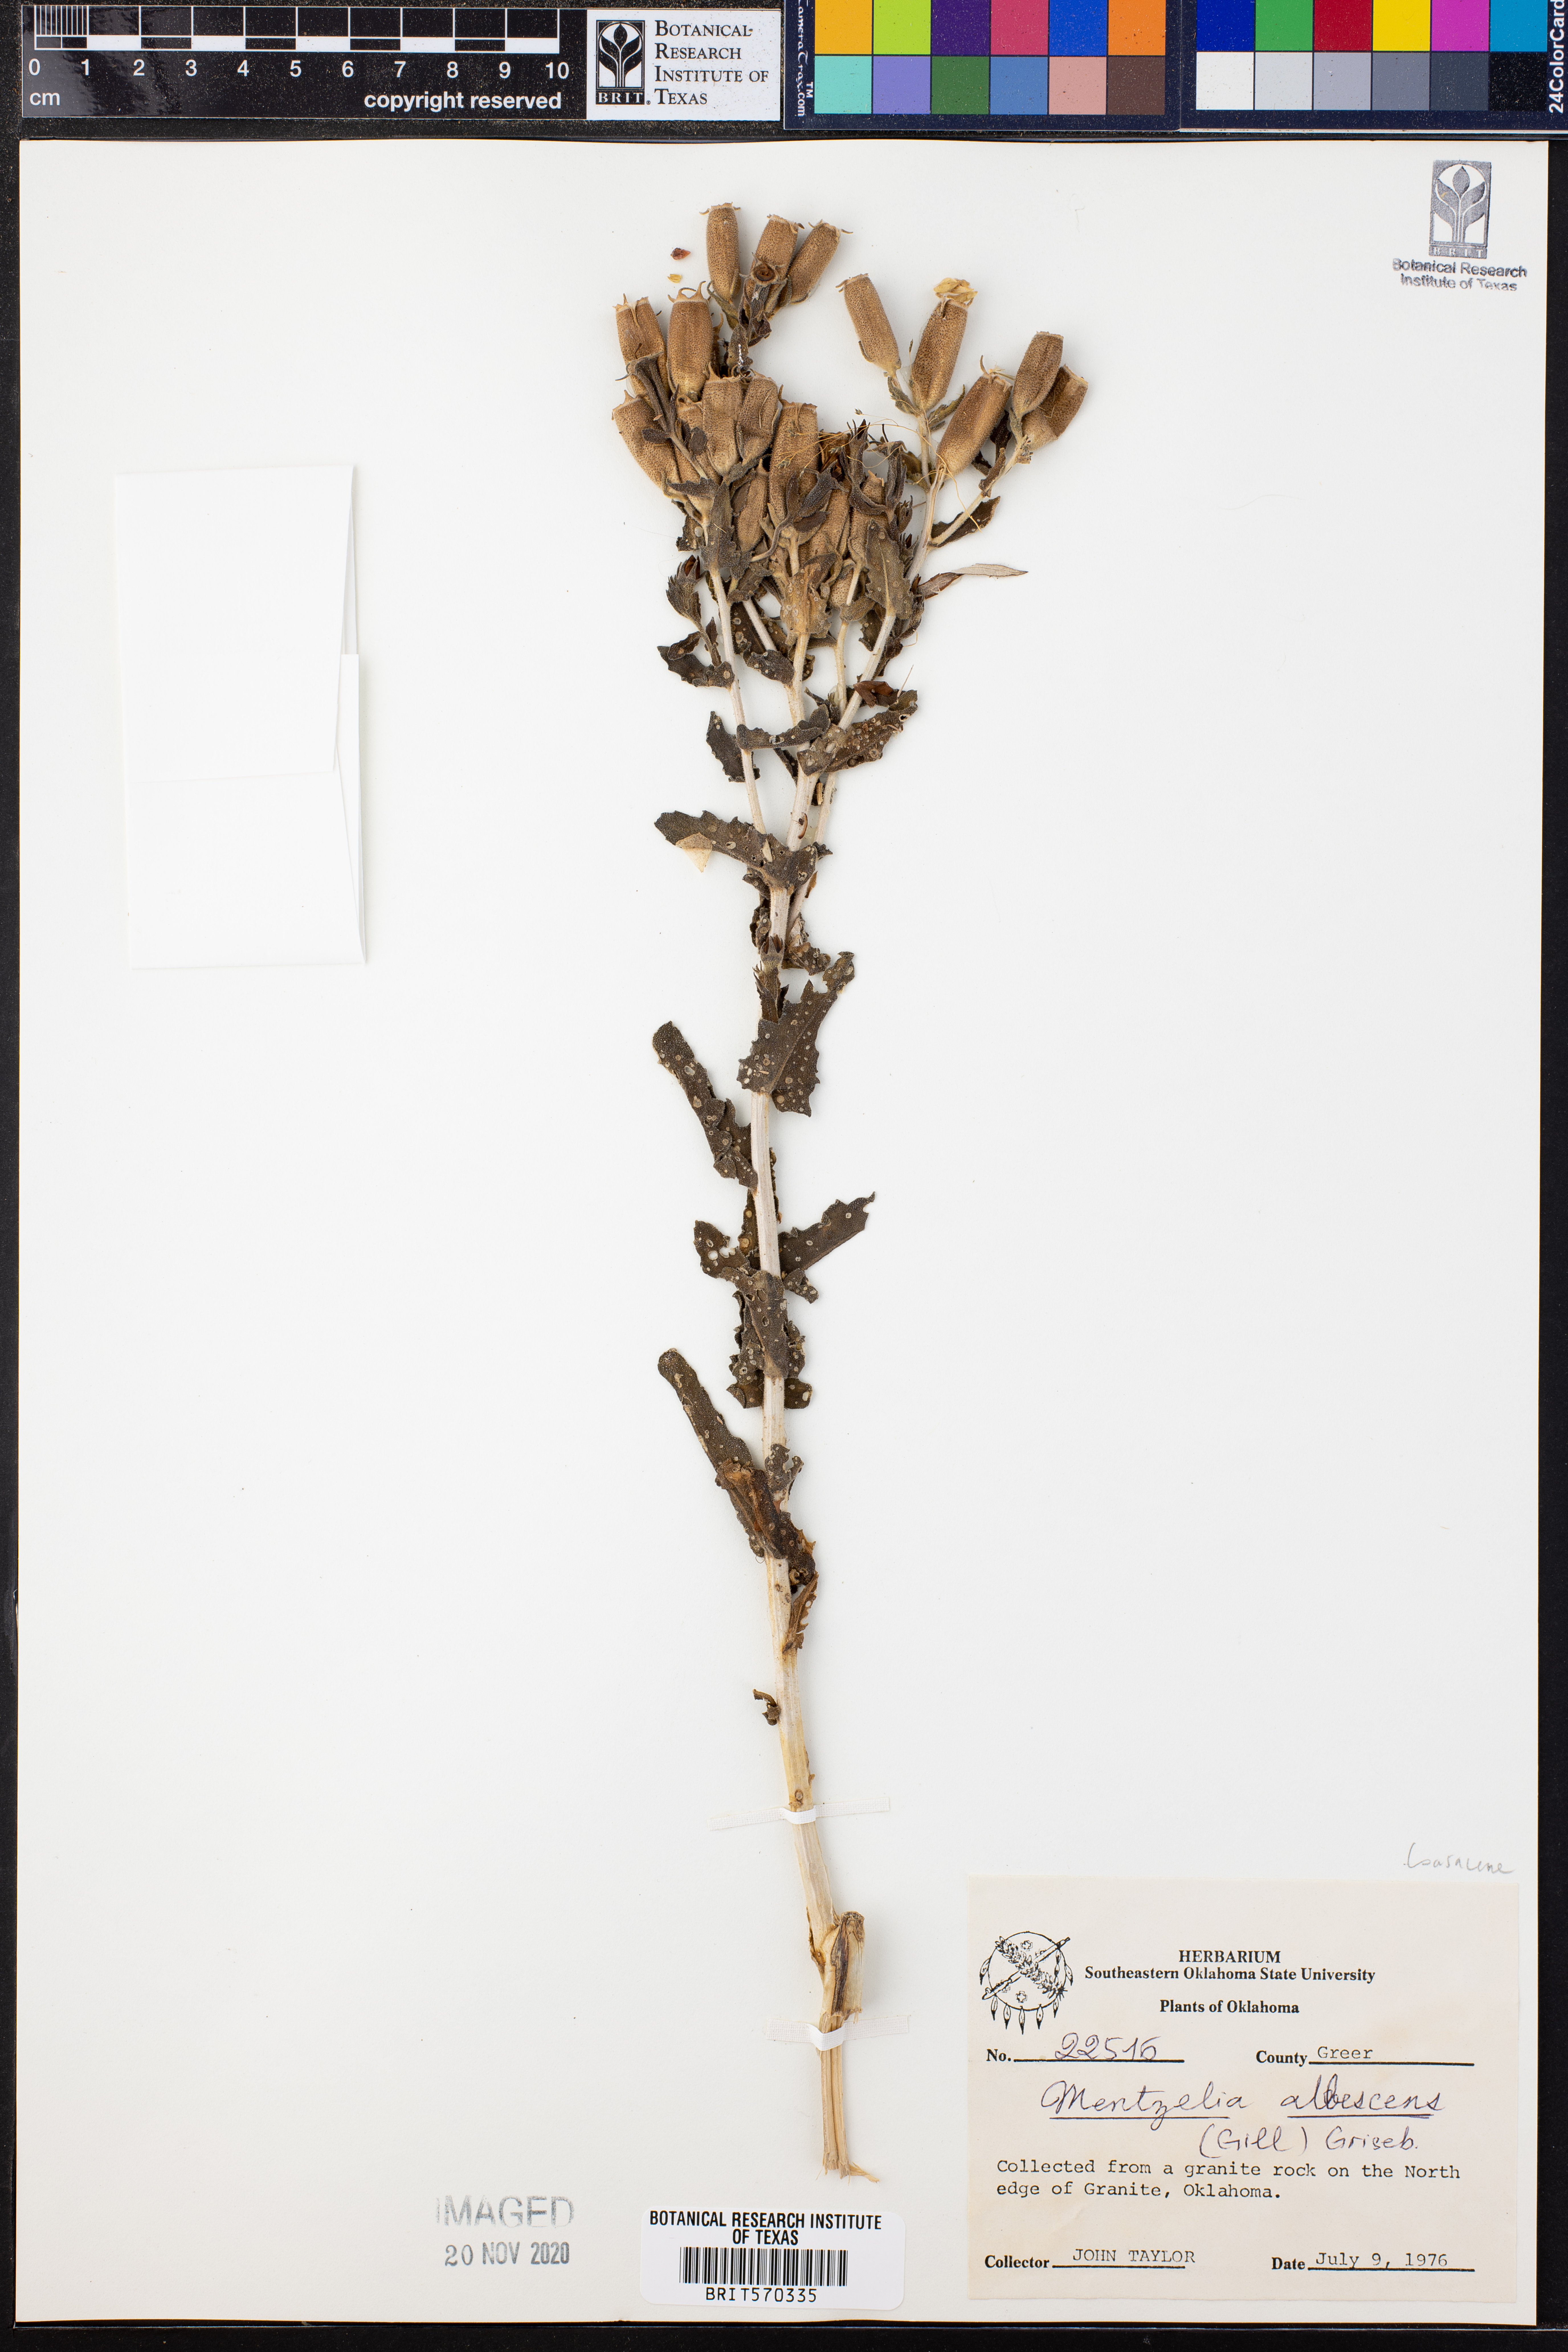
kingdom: Plantae
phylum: Tracheophyta
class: Magnoliopsida
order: Cornales
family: Loasaceae
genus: Mentzelia
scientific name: Mentzelia albescens
